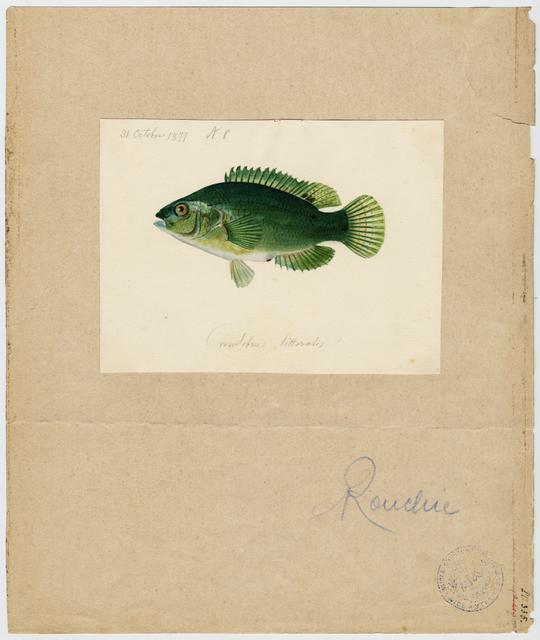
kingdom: Animalia
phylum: Chordata
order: Perciformes
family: Labridae
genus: Symphodus
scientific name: Symphodus roissali
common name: Five-spotted wrasse
